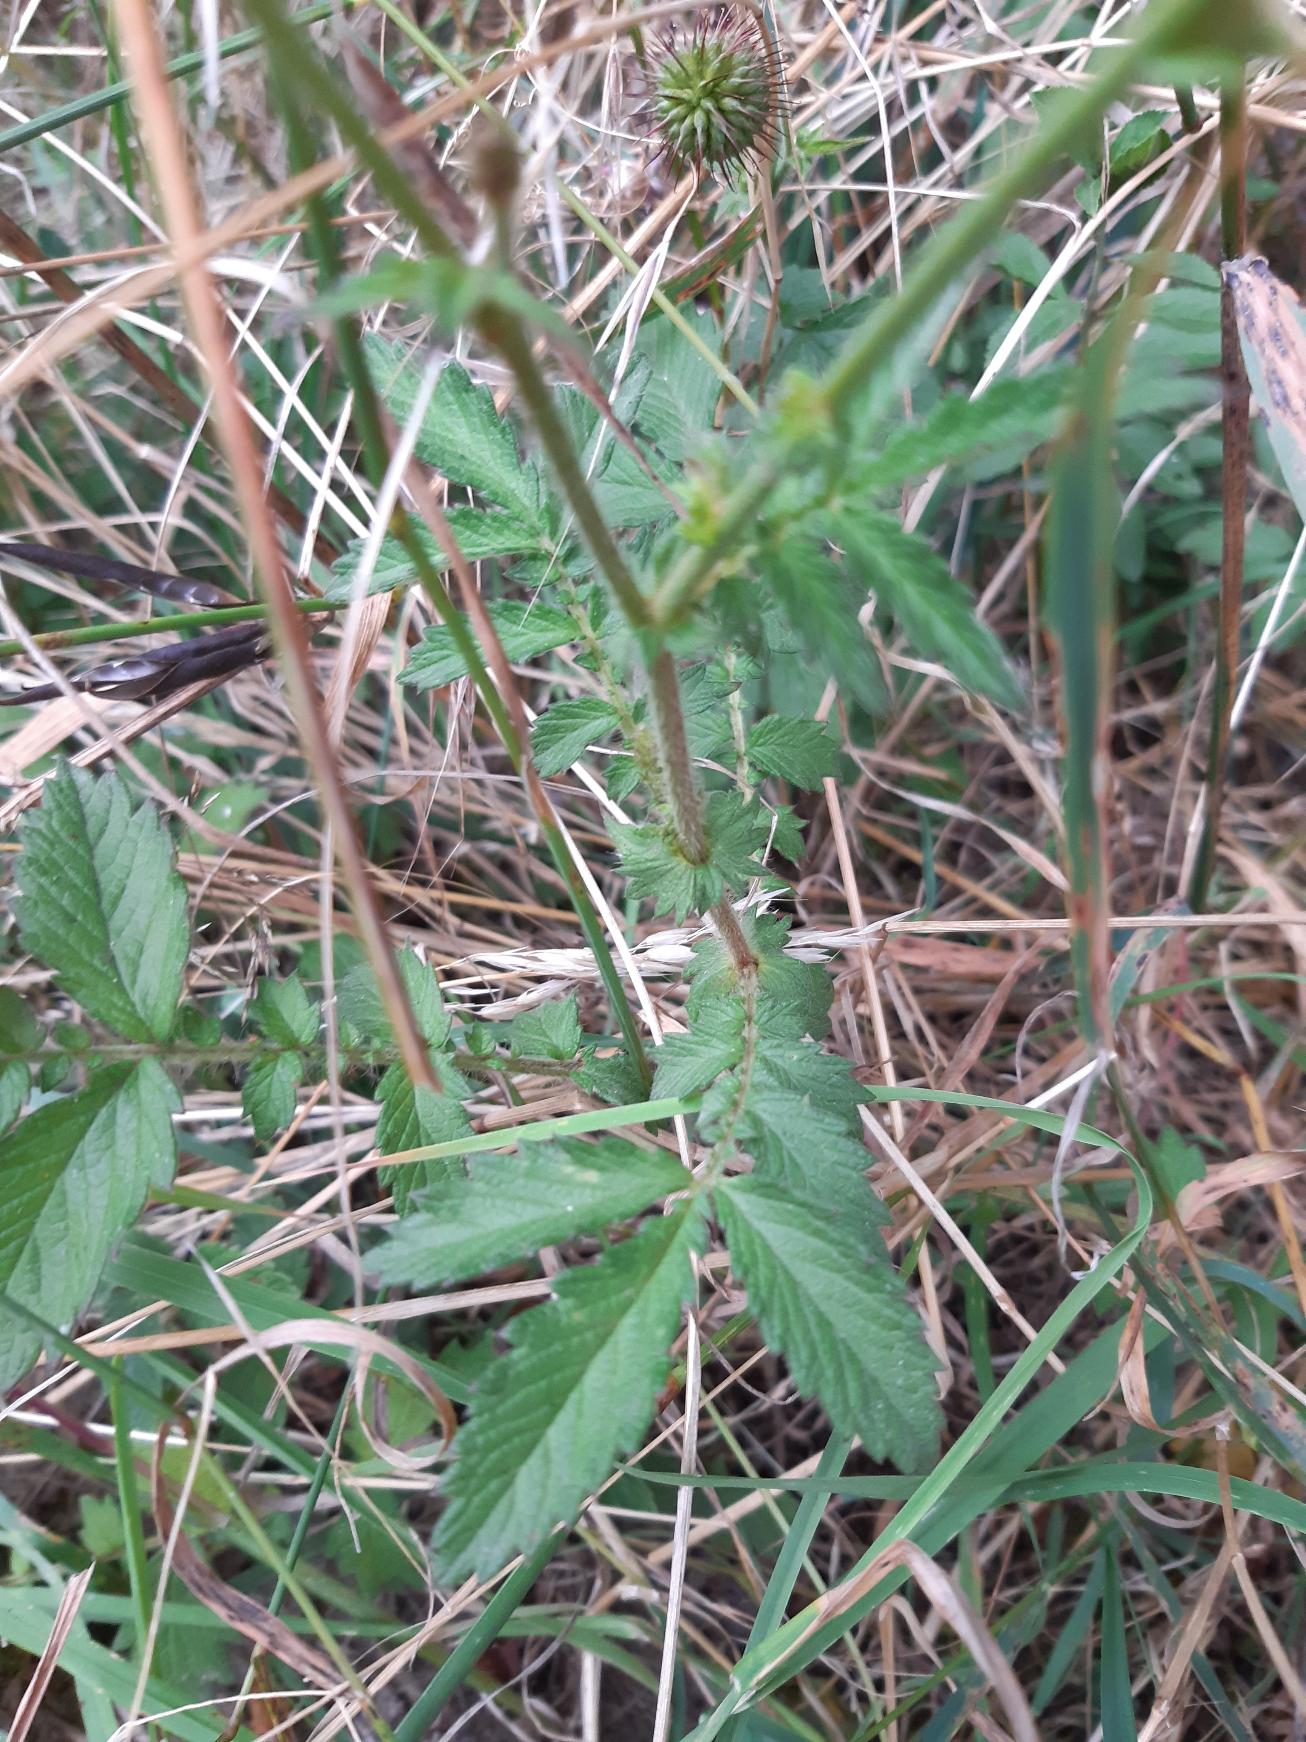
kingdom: Plantae
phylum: Tracheophyta
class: Magnoliopsida
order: Rosales
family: Rosaceae
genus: Agrimonia
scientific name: Agrimonia
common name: Agermåneslægten
